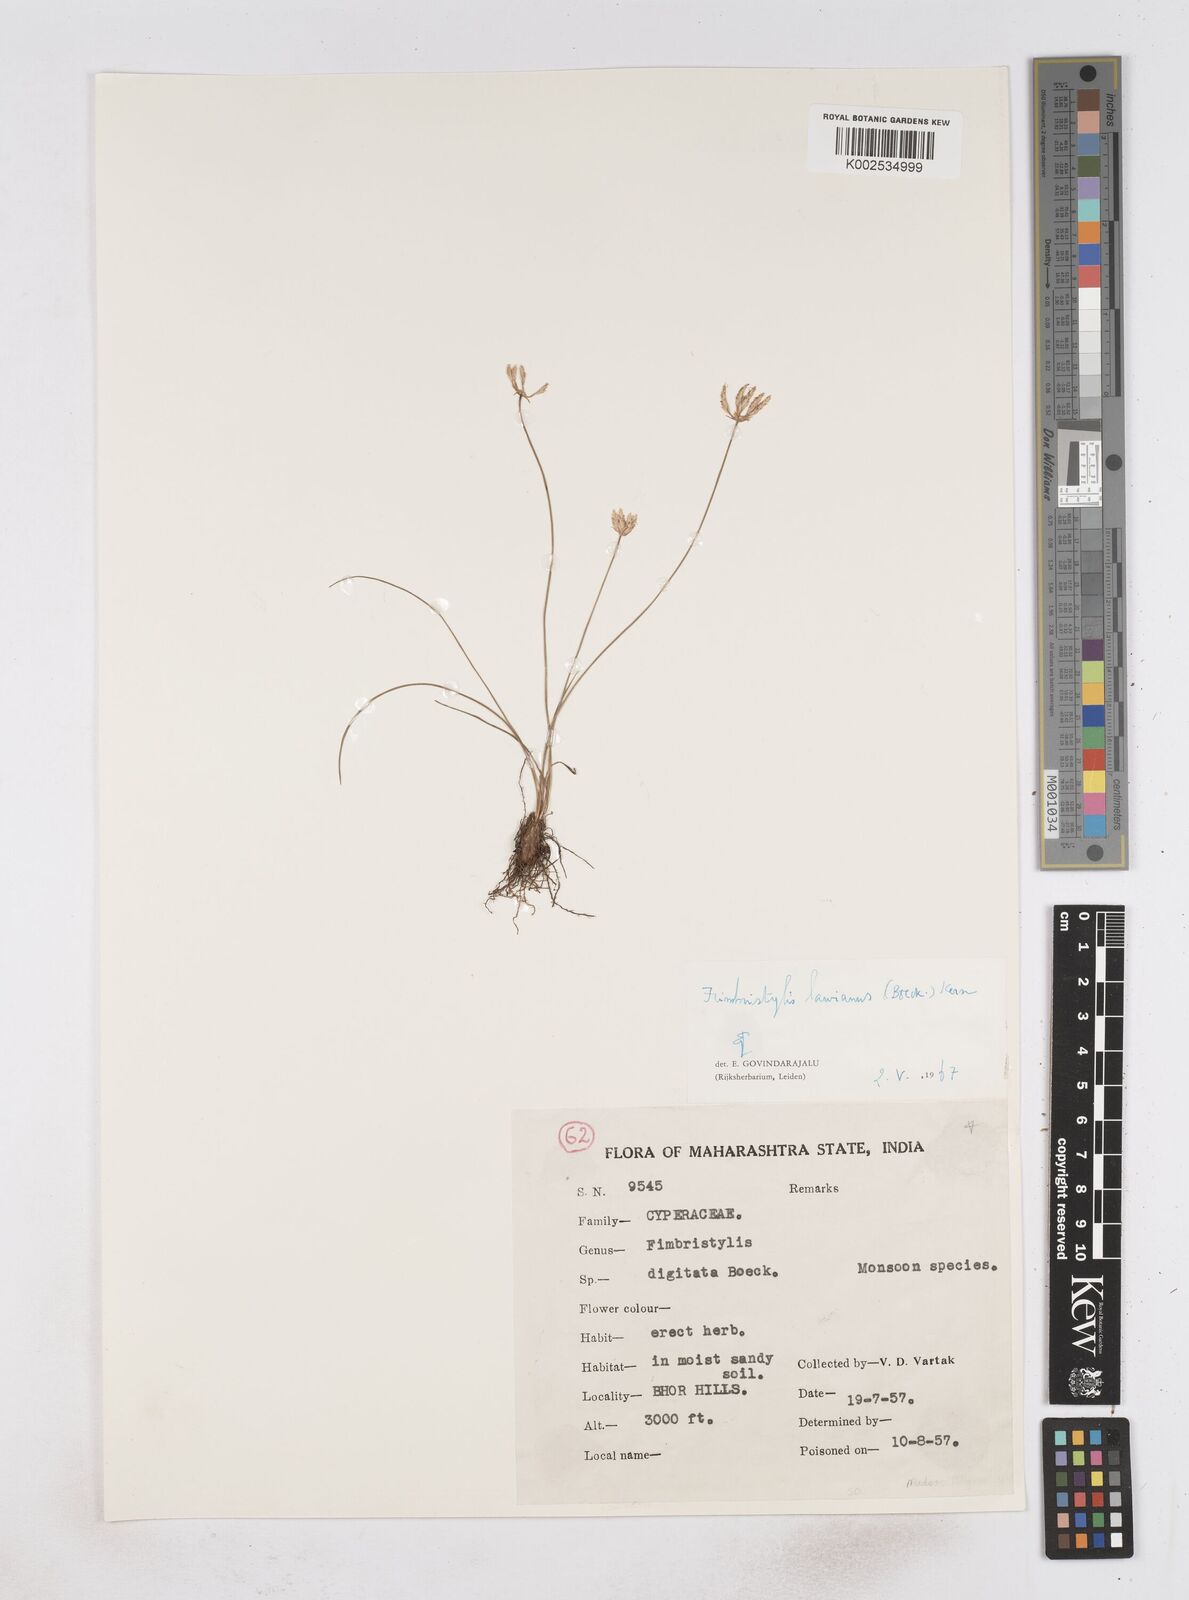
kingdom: Plantae
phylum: Tracheophyta
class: Liliopsida
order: Poales
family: Cyperaceae
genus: Fimbristylis
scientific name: Fimbristylis uliginosa
